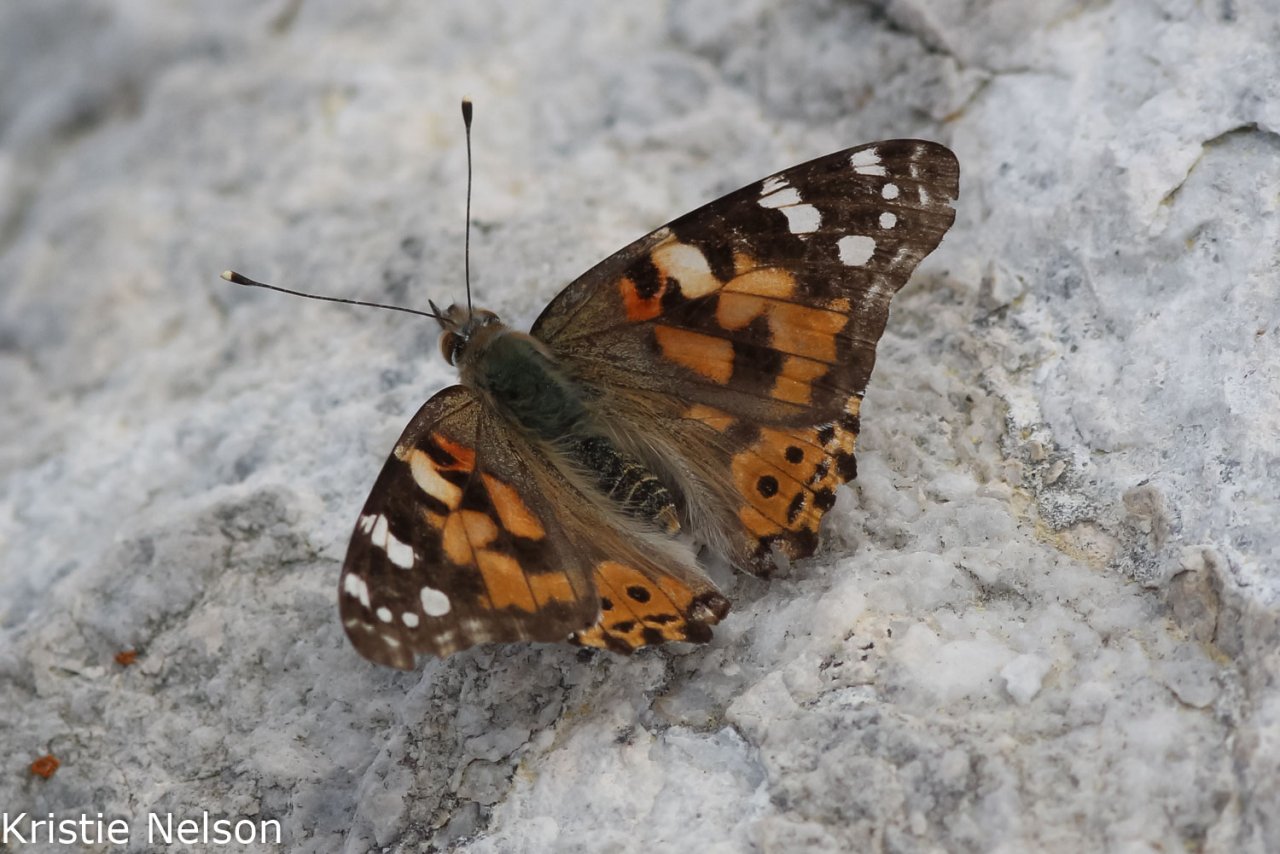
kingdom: Animalia
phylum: Arthropoda
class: Insecta
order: Lepidoptera
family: Nymphalidae
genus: Vanessa
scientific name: Vanessa cardui
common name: Painted Lady
